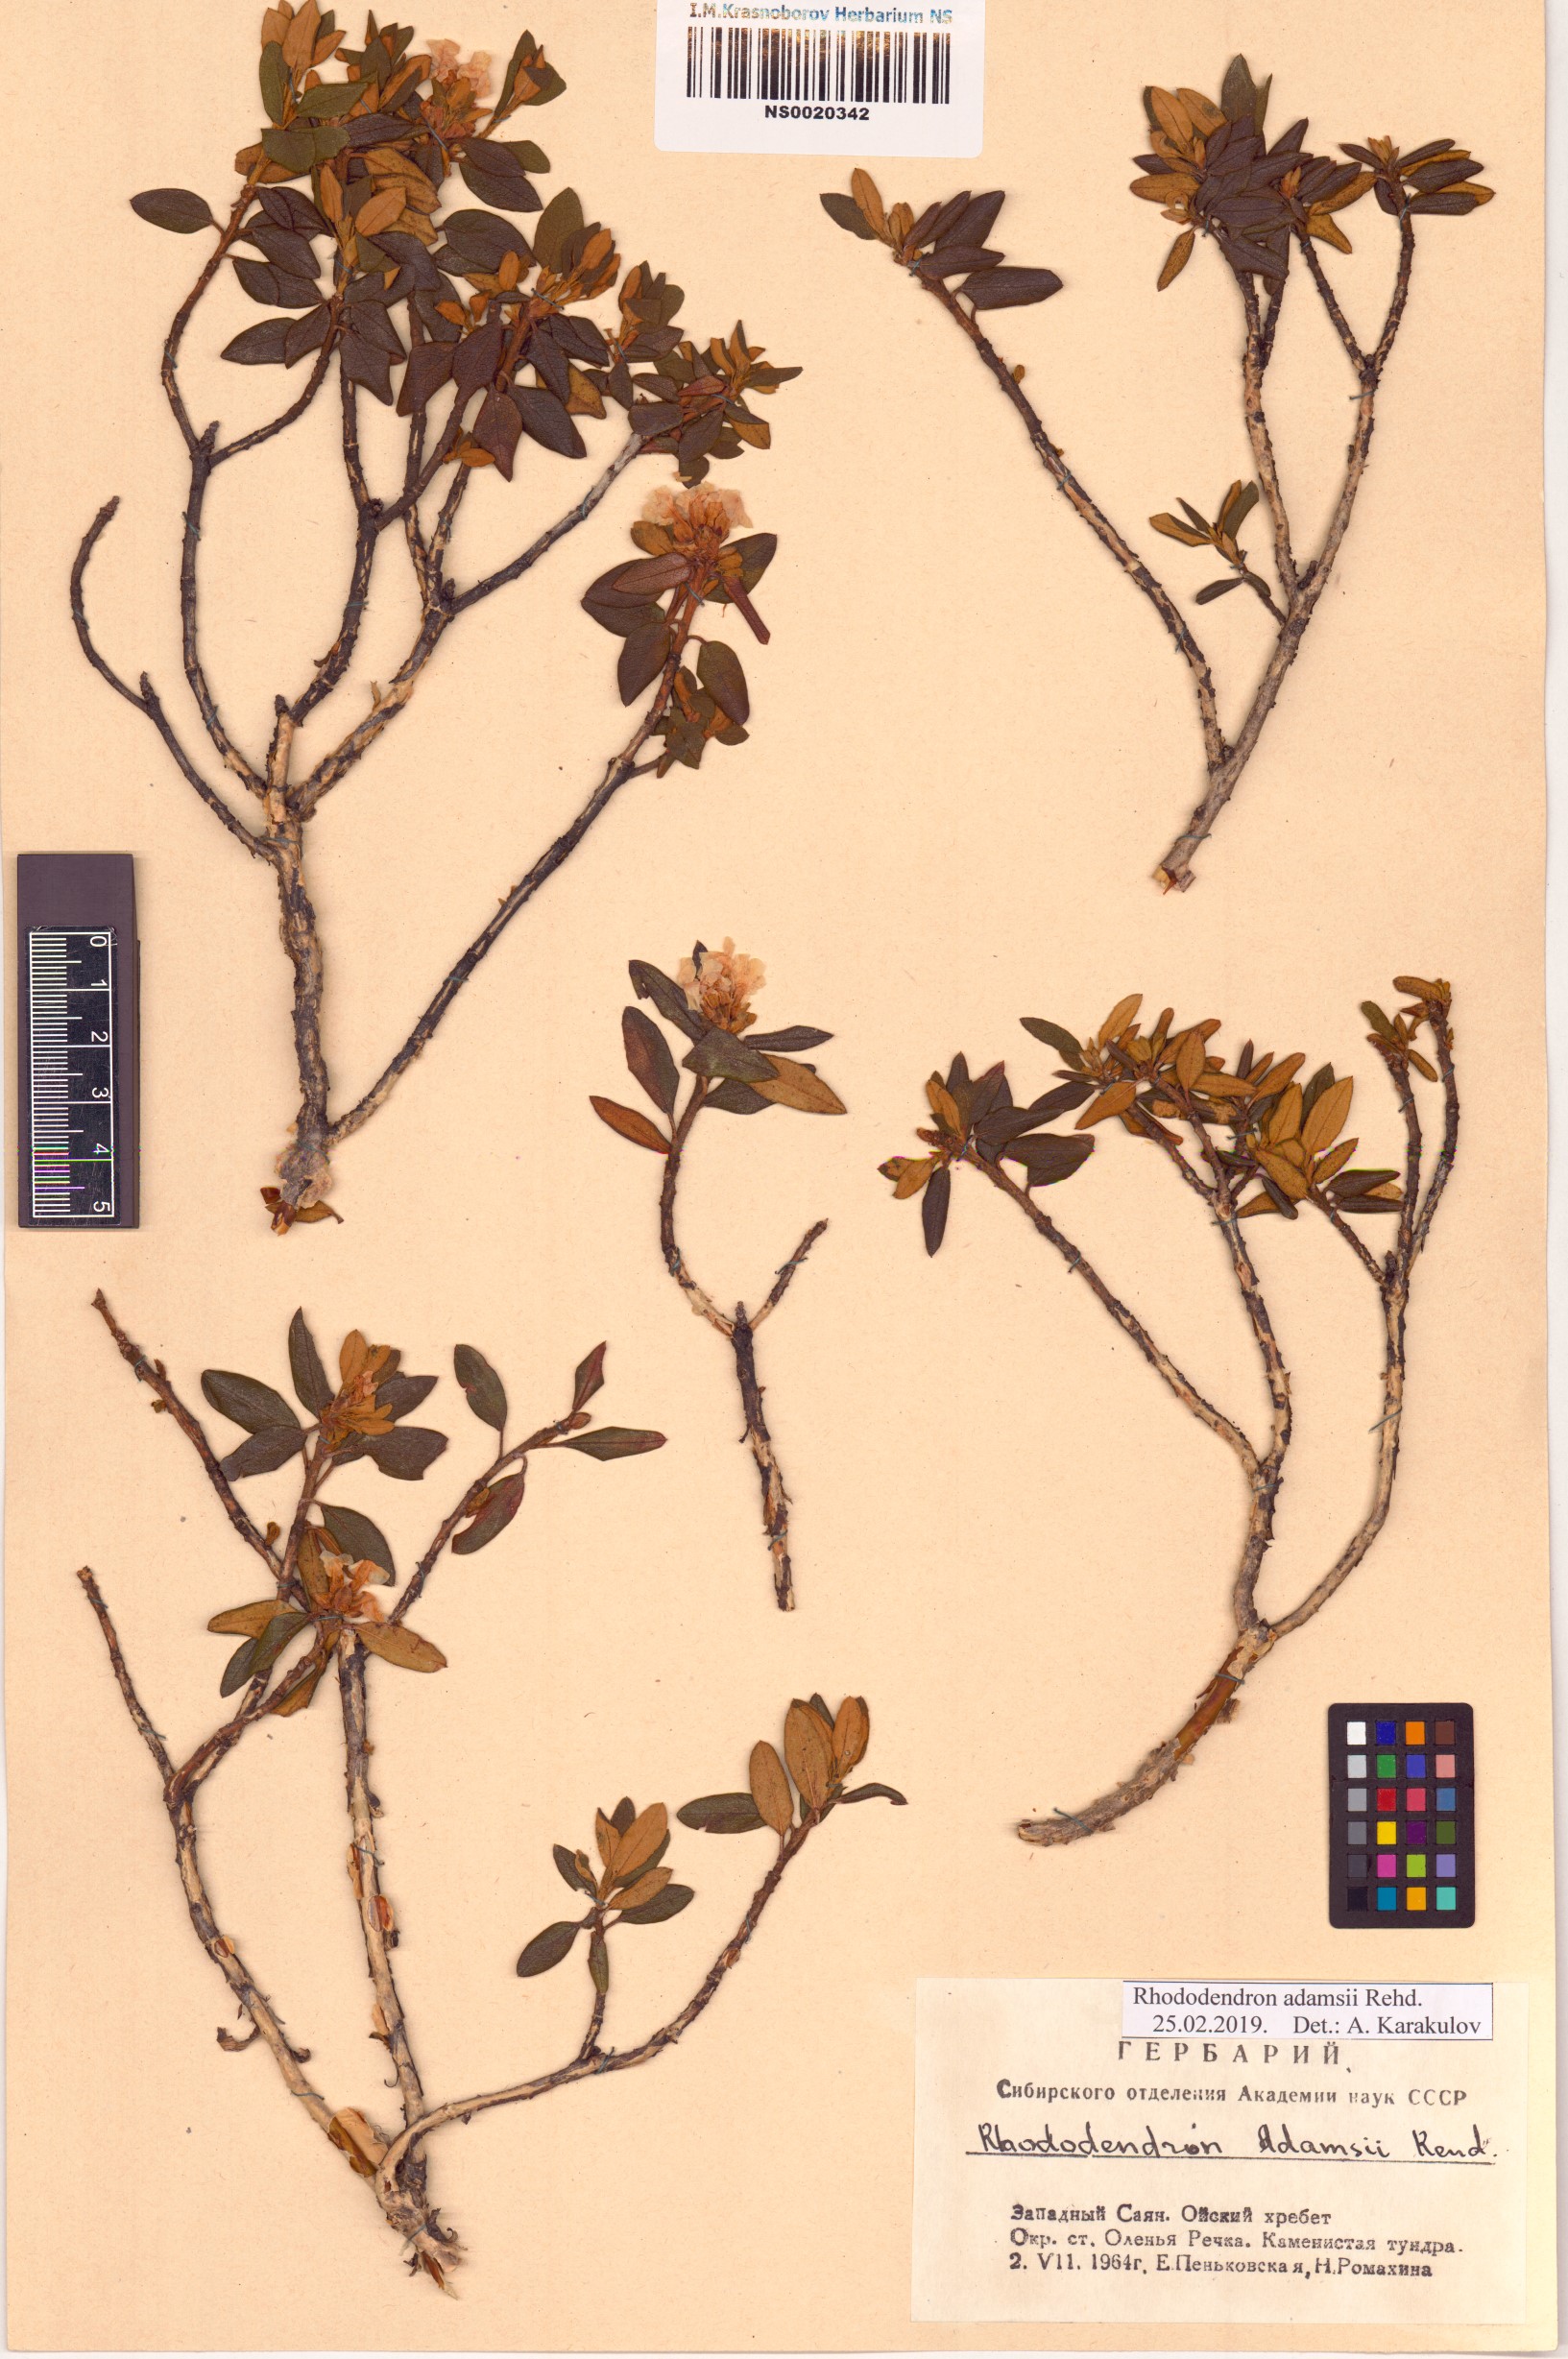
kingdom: Plantae
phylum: Tracheophyta
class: Magnoliopsida
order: Ericales
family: Ericaceae
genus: Rhododendron
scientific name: Rhododendron adamsii
